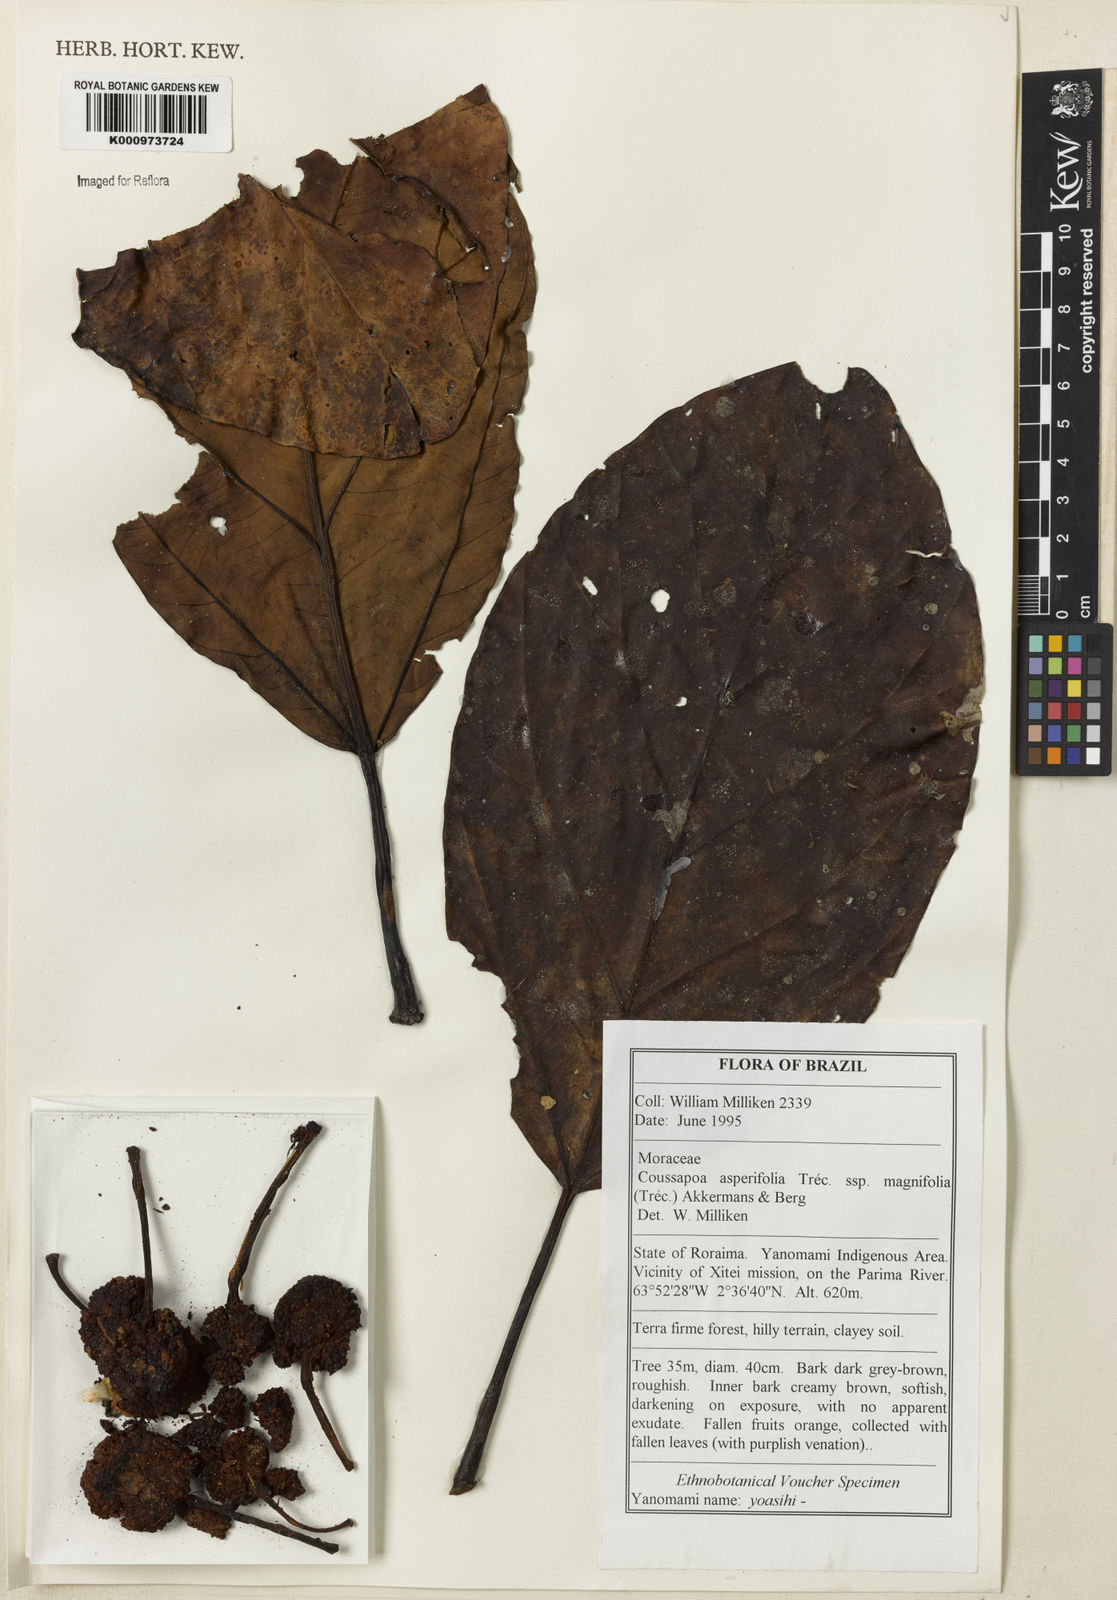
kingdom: Plantae
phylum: Tracheophyta
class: Magnoliopsida
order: Rosales
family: Urticaceae
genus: Coussapoa
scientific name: Coussapoa
